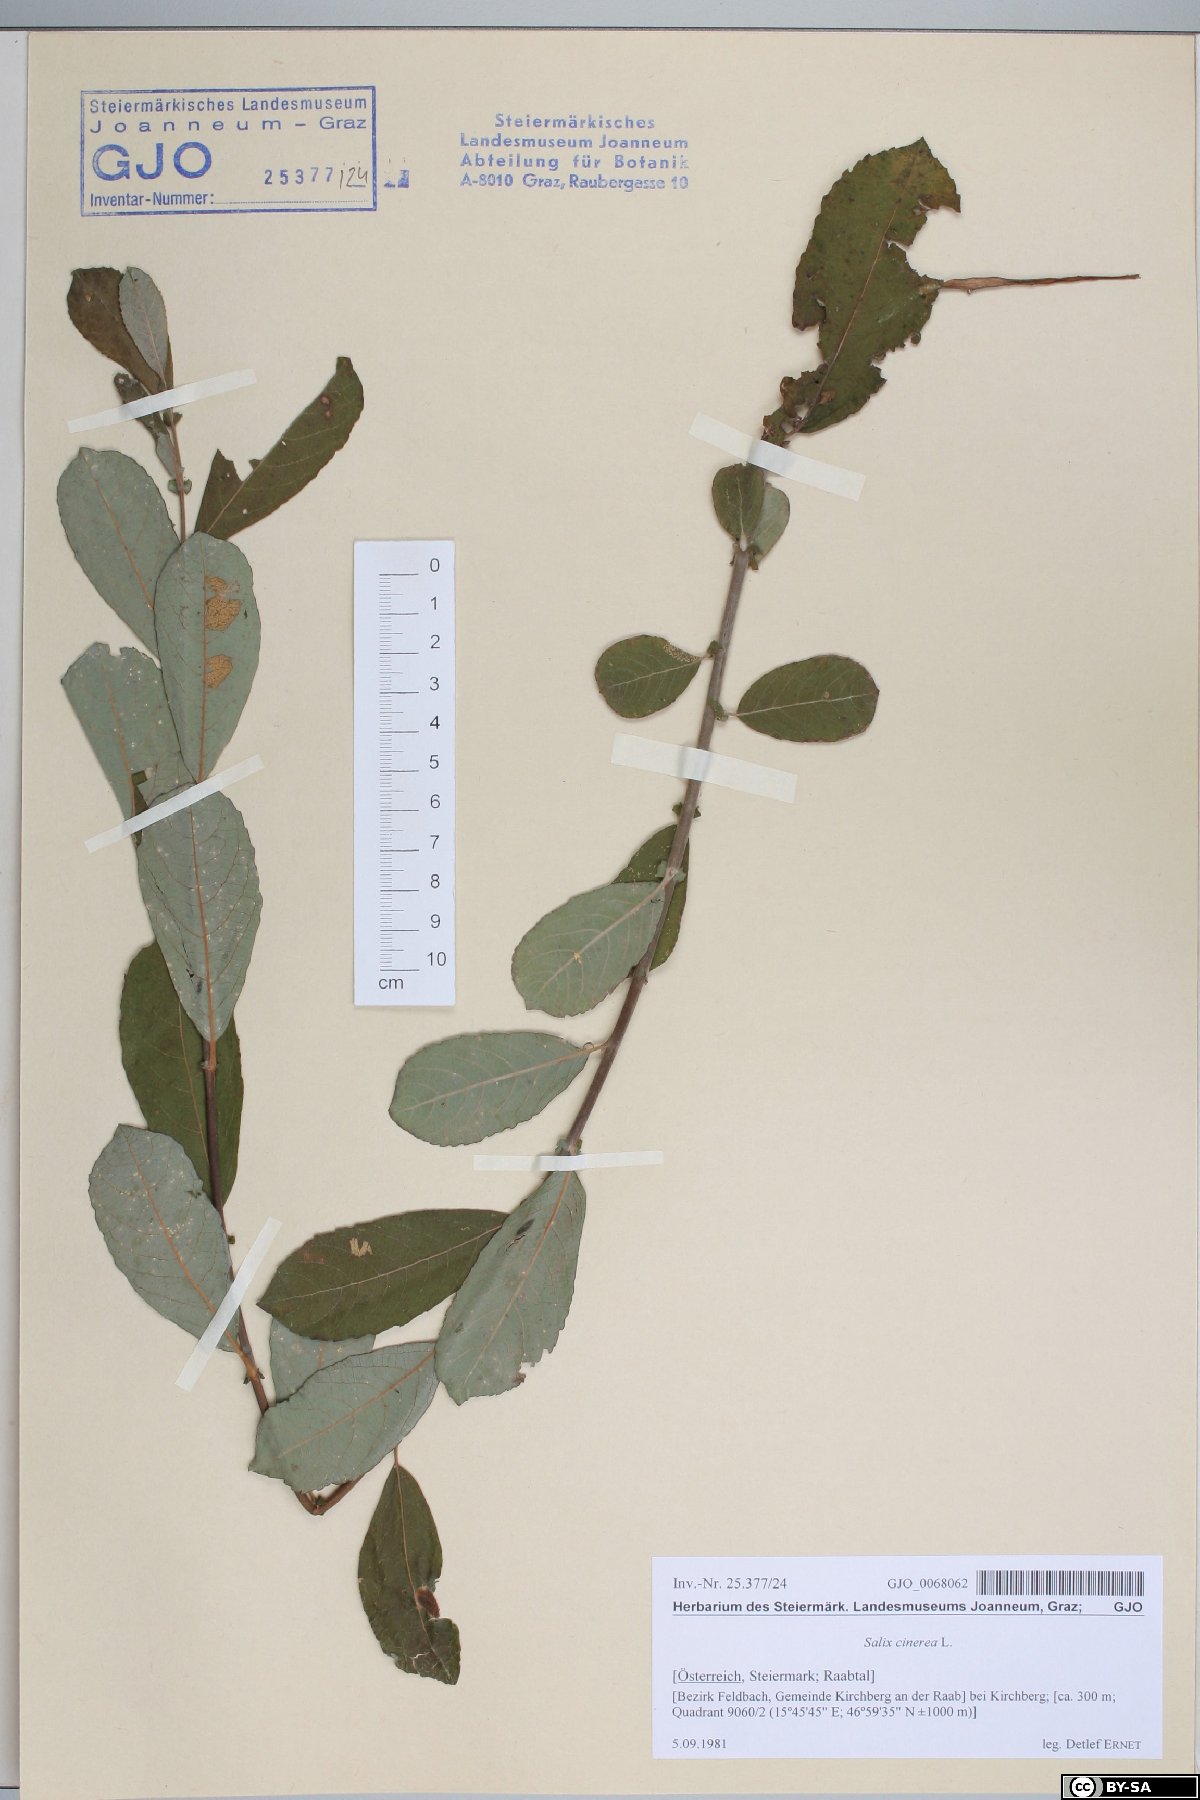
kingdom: Plantae
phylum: Tracheophyta
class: Magnoliopsida
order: Malpighiales
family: Salicaceae
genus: Salix
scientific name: Salix cinerea
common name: Common sallow
